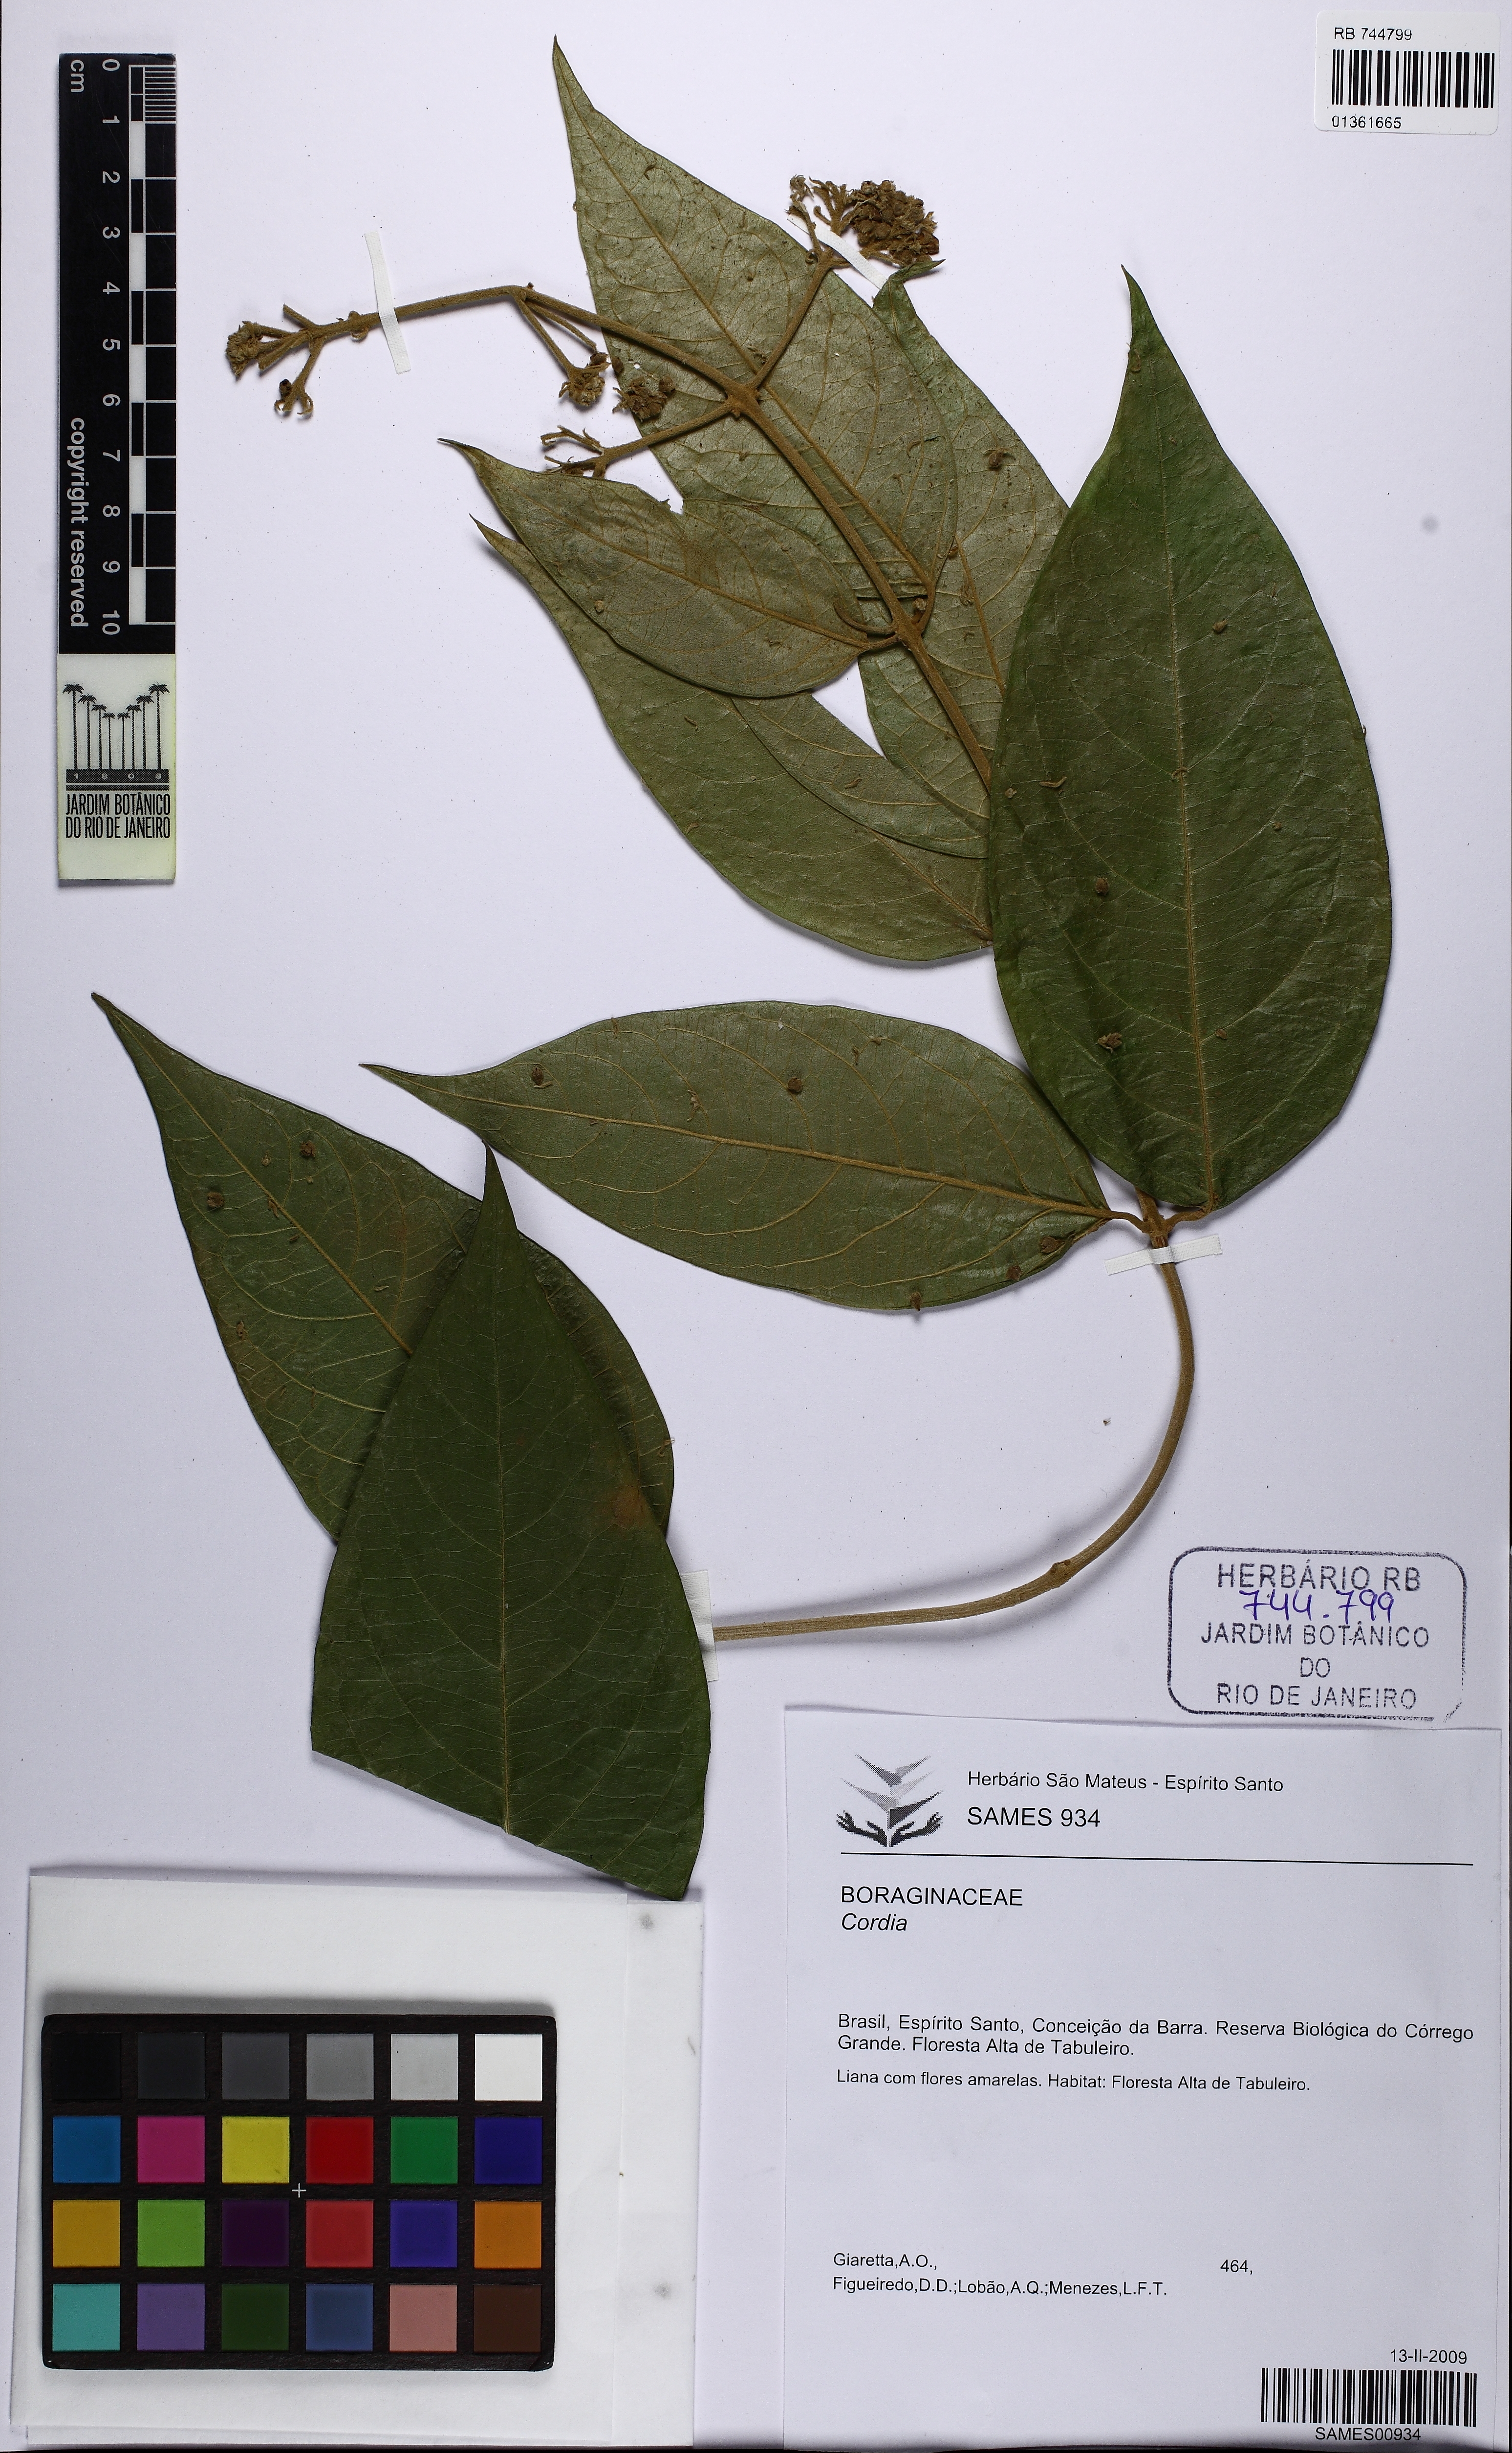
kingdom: Plantae
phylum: Tracheophyta
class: Magnoliopsida
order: Boraginales
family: Cordiaceae
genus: Cordia
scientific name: Cordia
